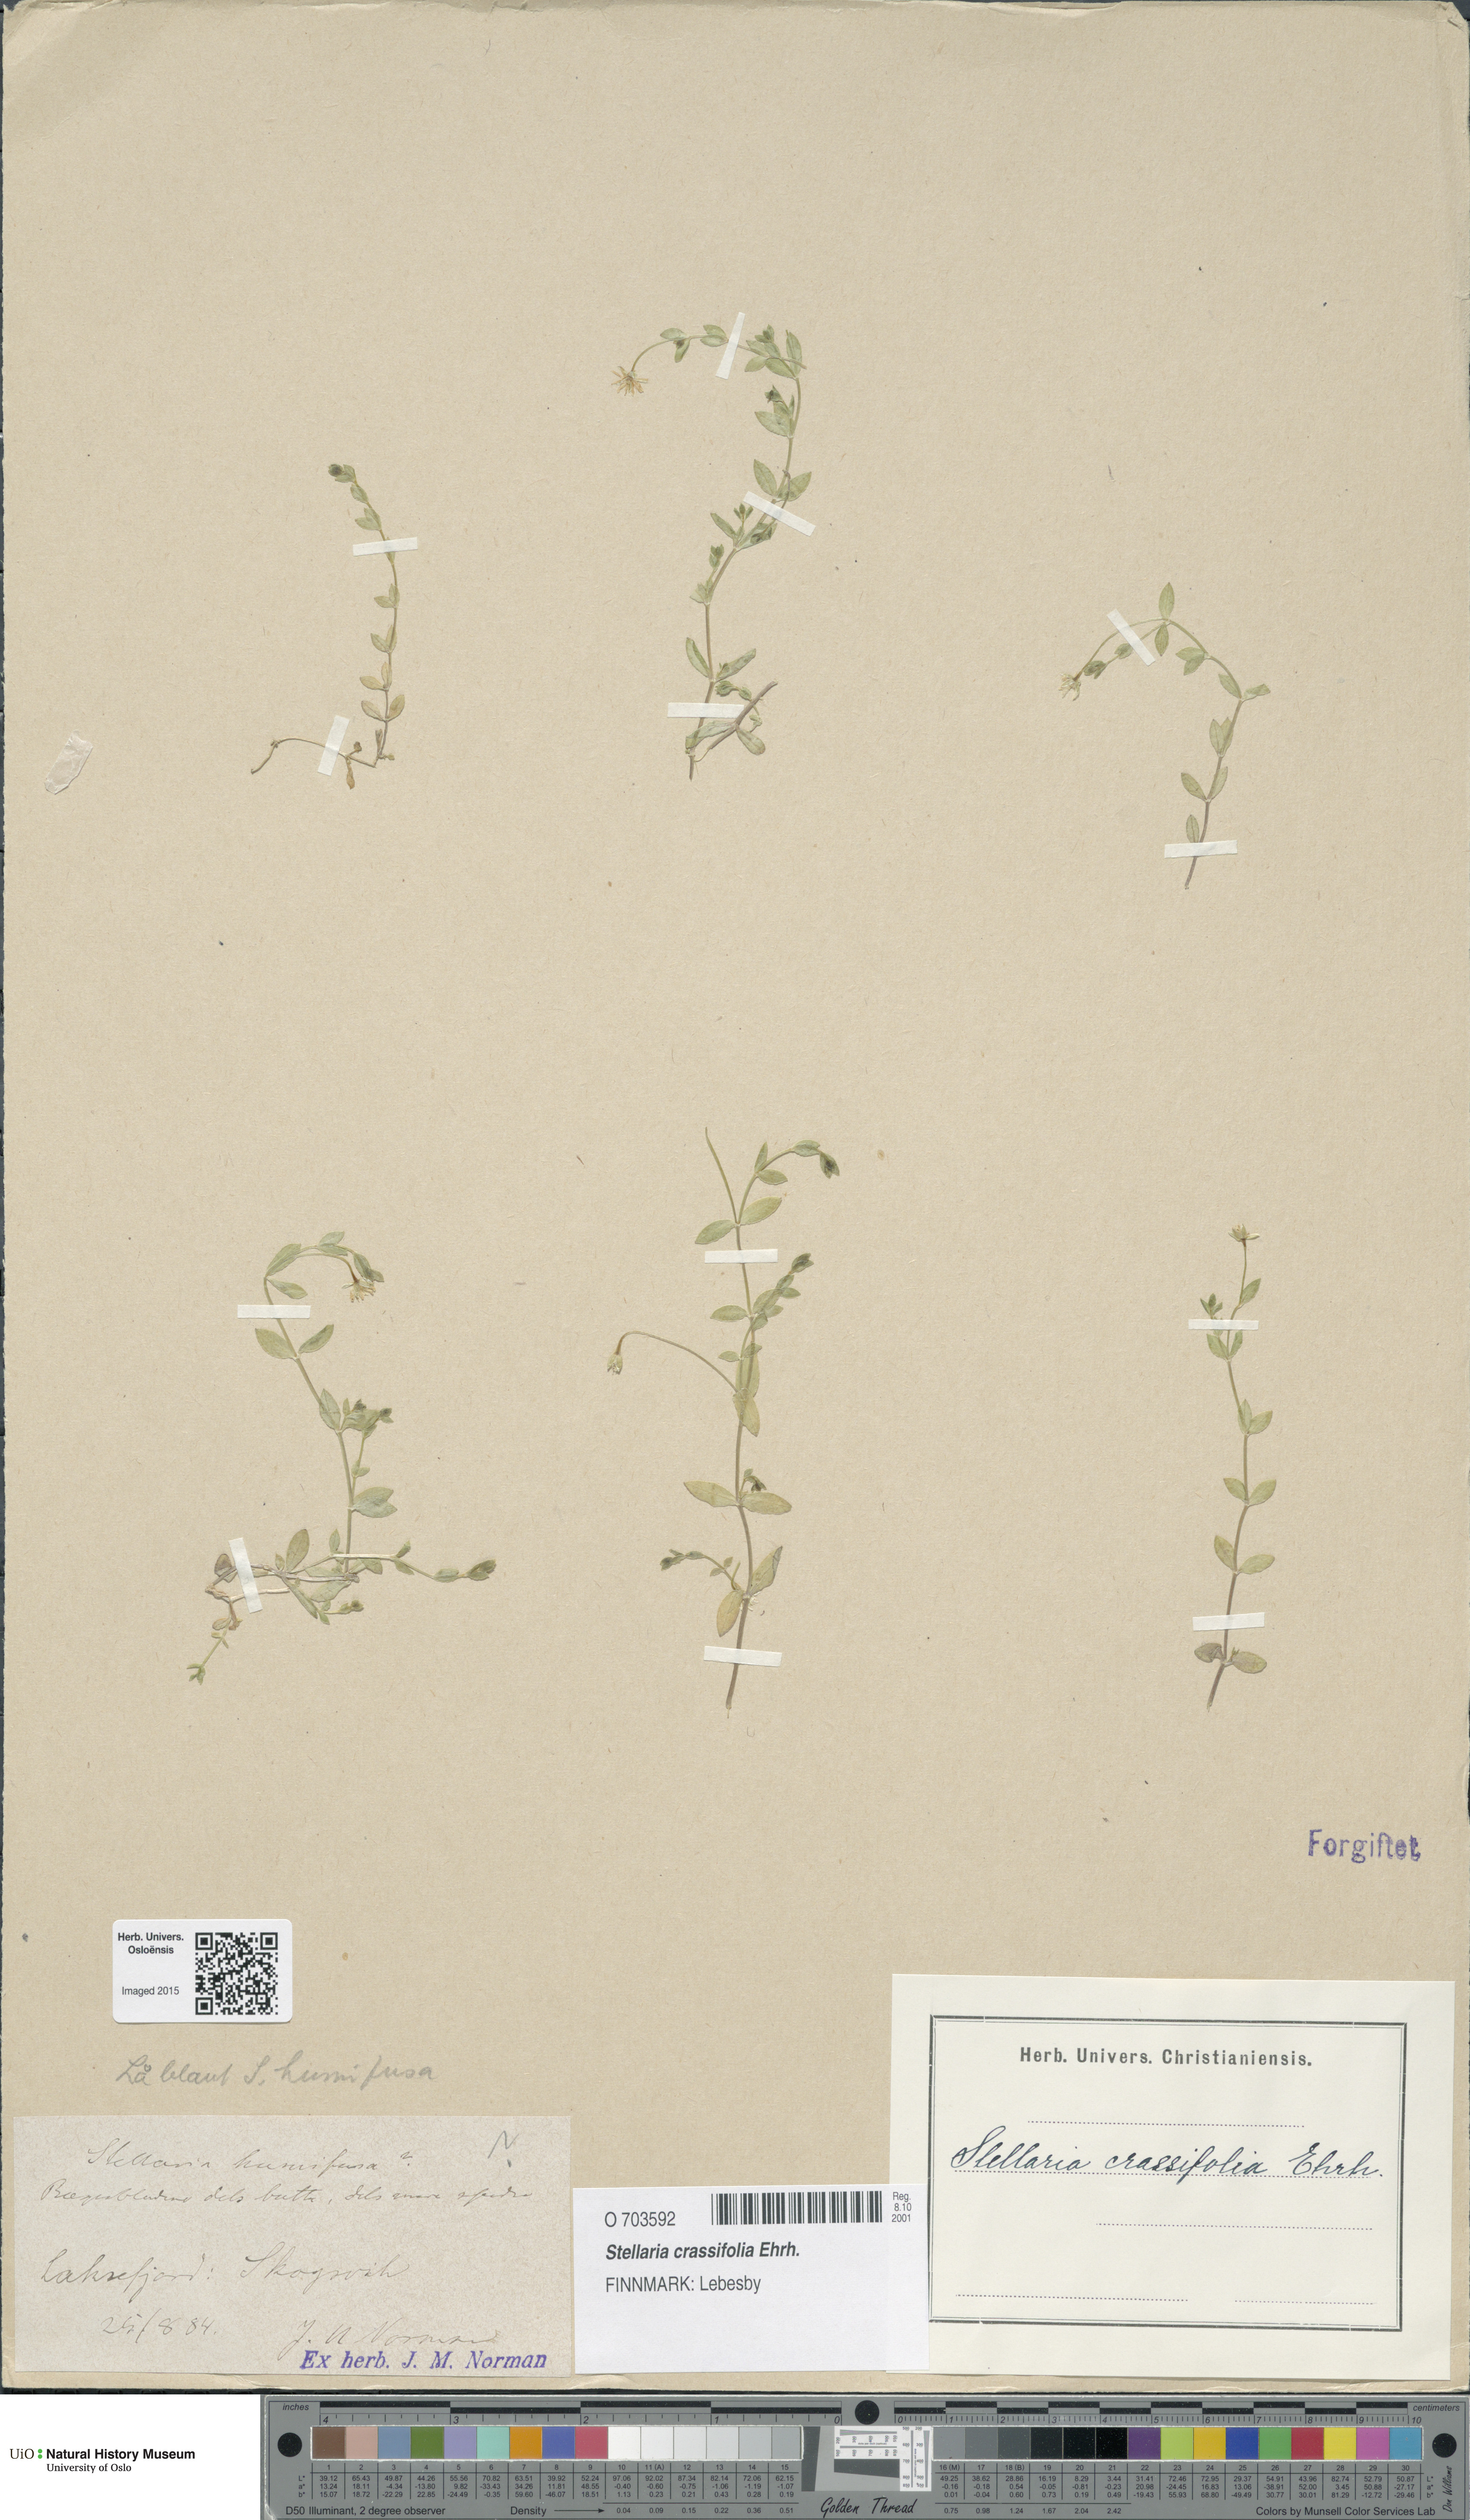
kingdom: Plantae
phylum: Tracheophyta
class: Magnoliopsida
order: Caryophyllales
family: Caryophyllaceae
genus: Stellaria
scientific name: Stellaria crassifolia
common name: Fleshy starwort
